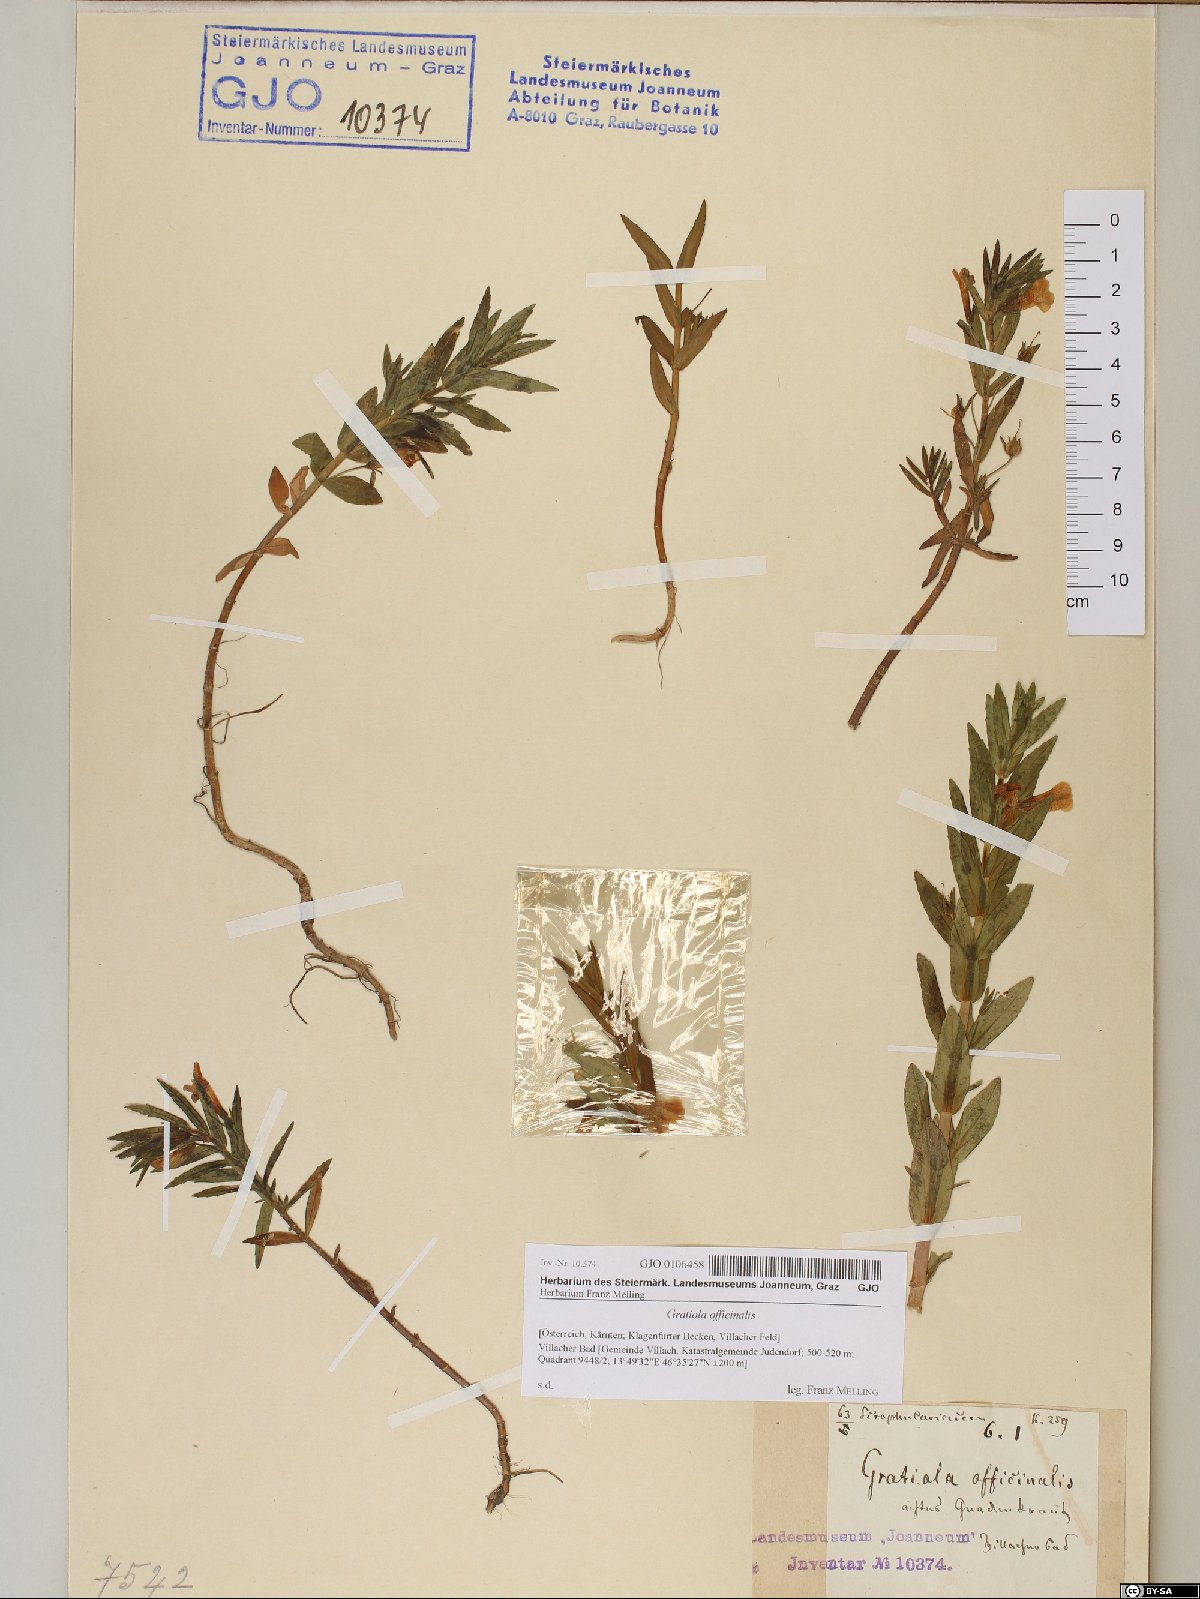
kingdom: Plantae
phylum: Tracheophyta
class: Magnoliopsida
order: Lamiales
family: Plantaginaceae
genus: Gratiola
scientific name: Gratiola officinalis
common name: Gratiola
